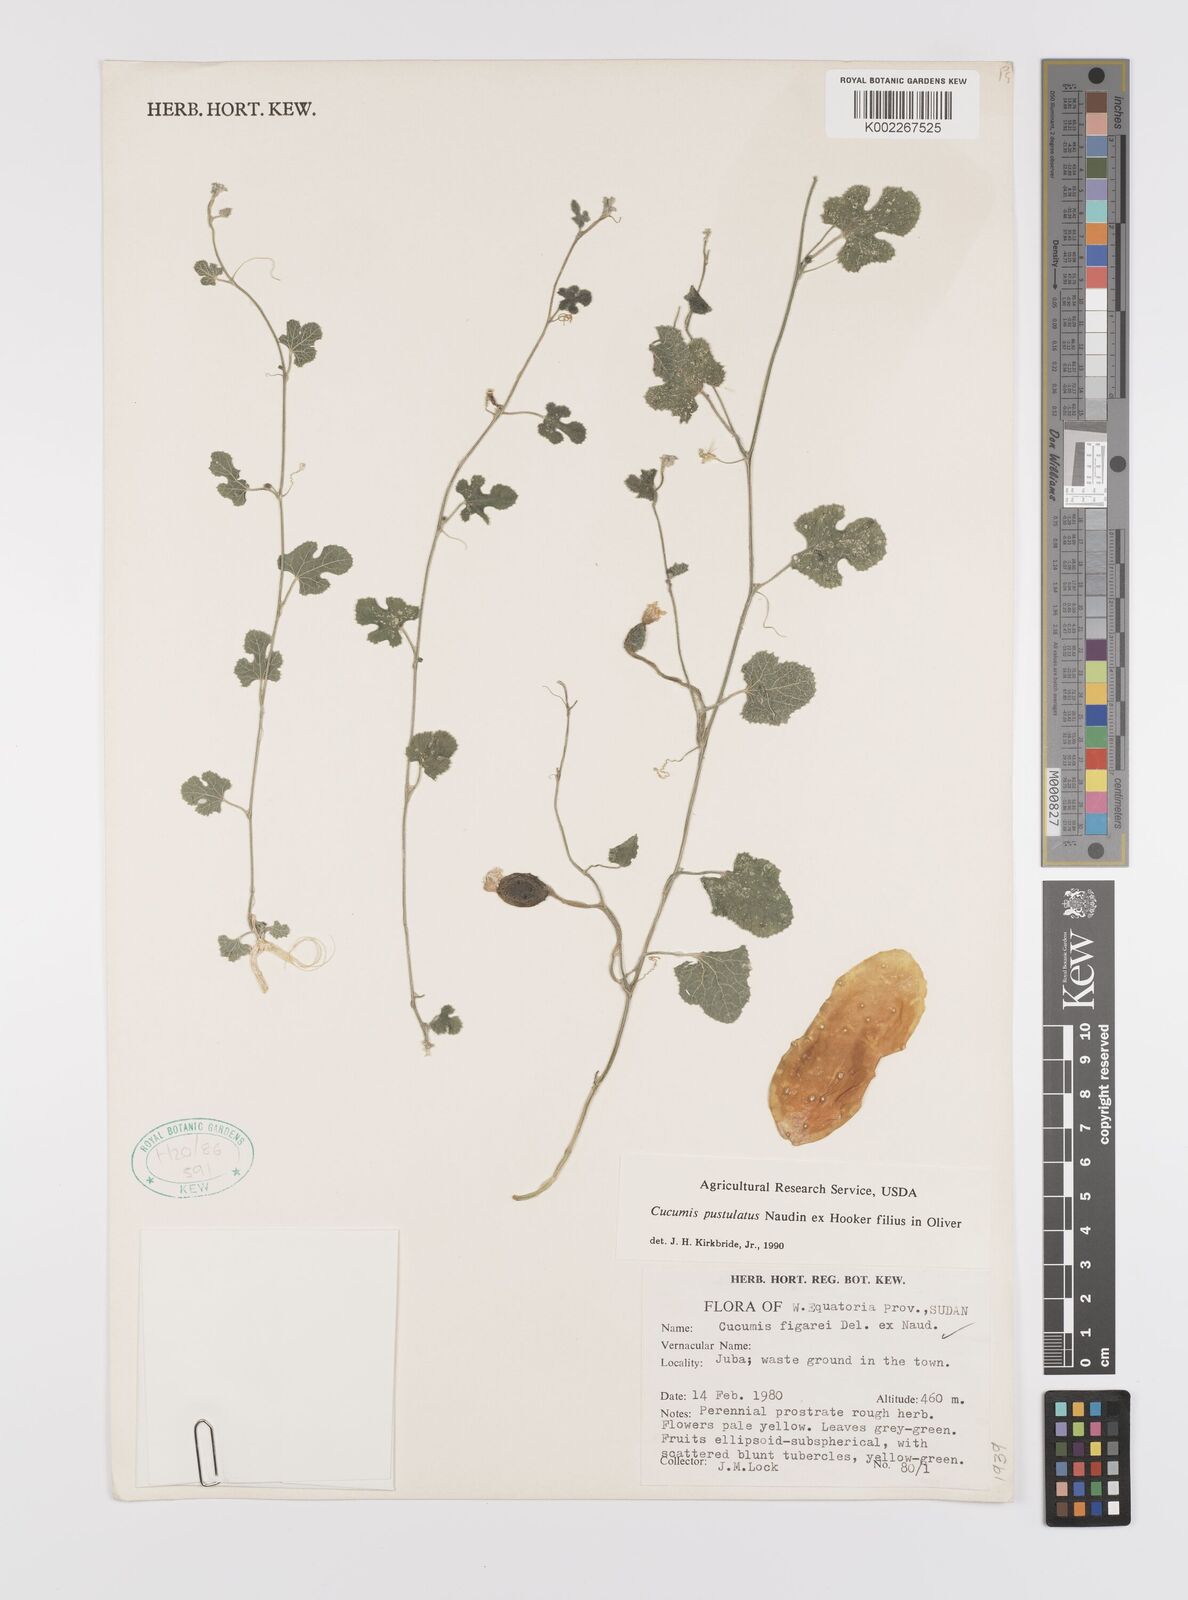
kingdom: Plantae
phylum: Tracheophyta
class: Magnoliopsida
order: Cucurbitales
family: Cucurbitaceae
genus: Cucumis
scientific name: Cucumis pustulatus
